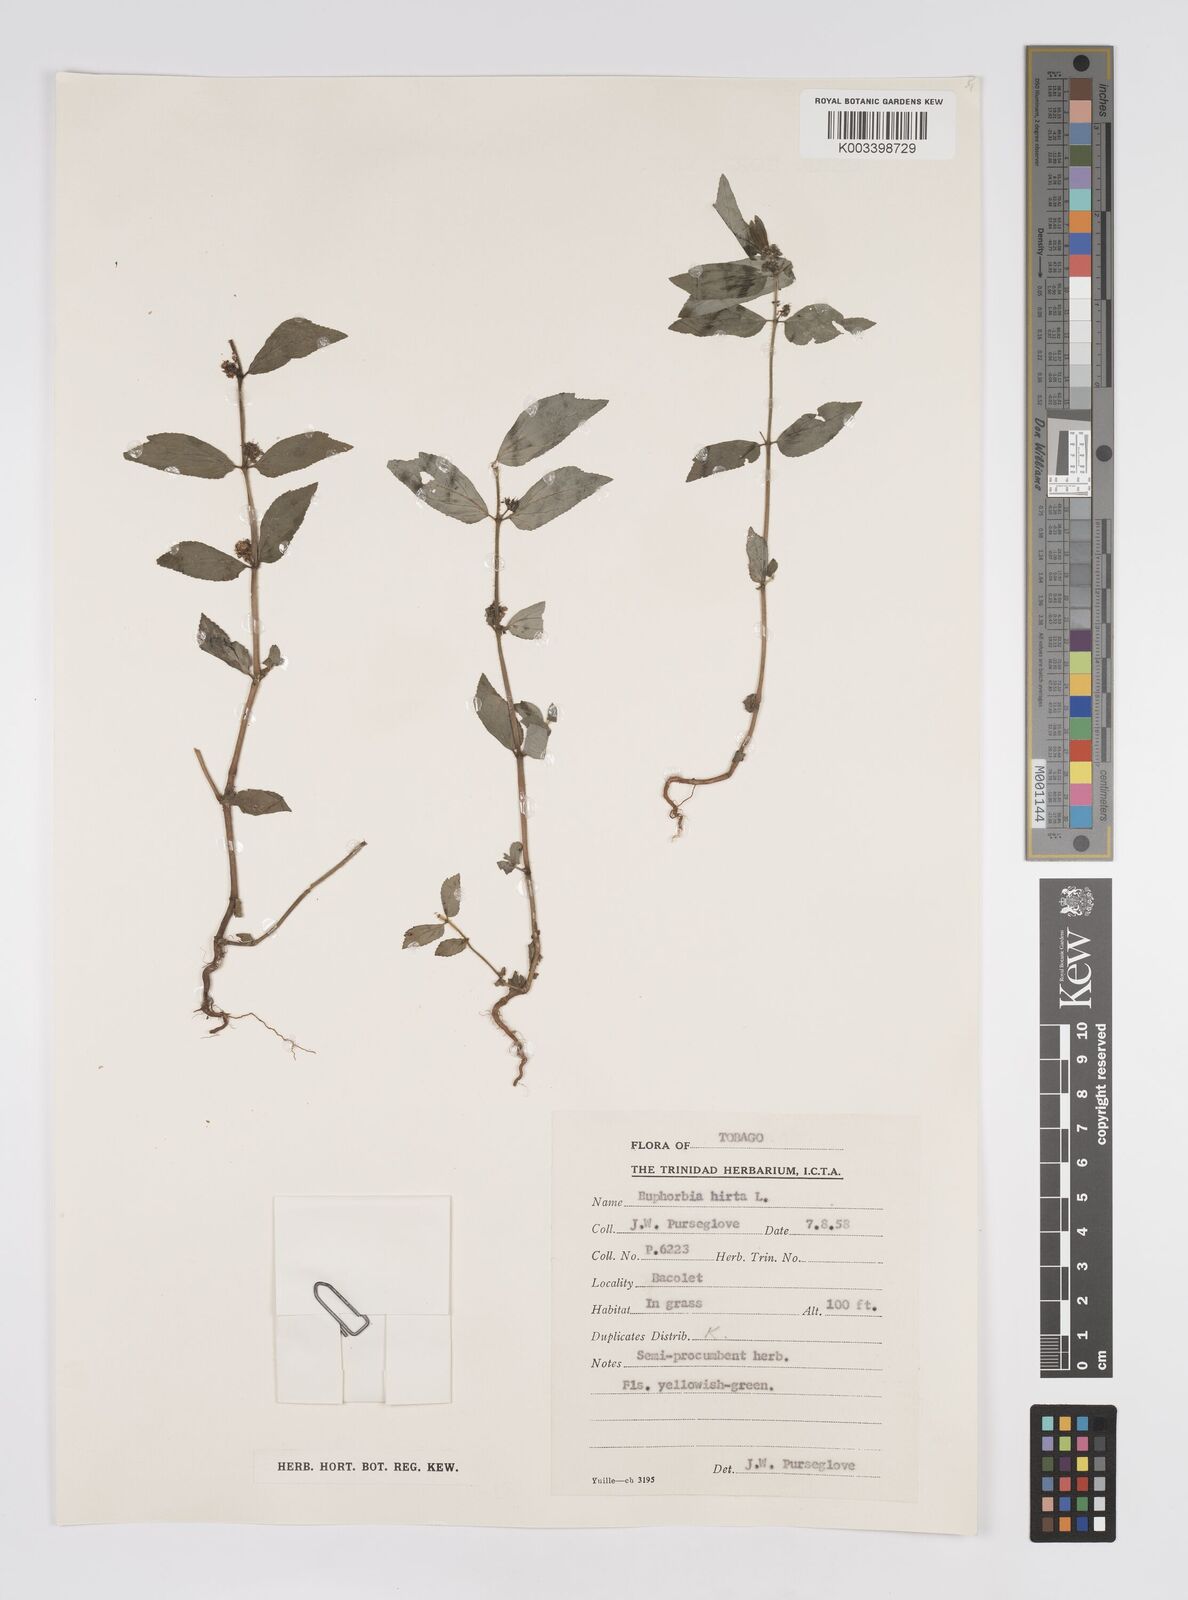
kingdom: Plantae
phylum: Tracheophyta
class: Magnoliopsida
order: Malpighiales
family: Euphorbiaceae
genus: Euphorbia
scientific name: Euphorbia hirta
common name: Pillpod sandmat
